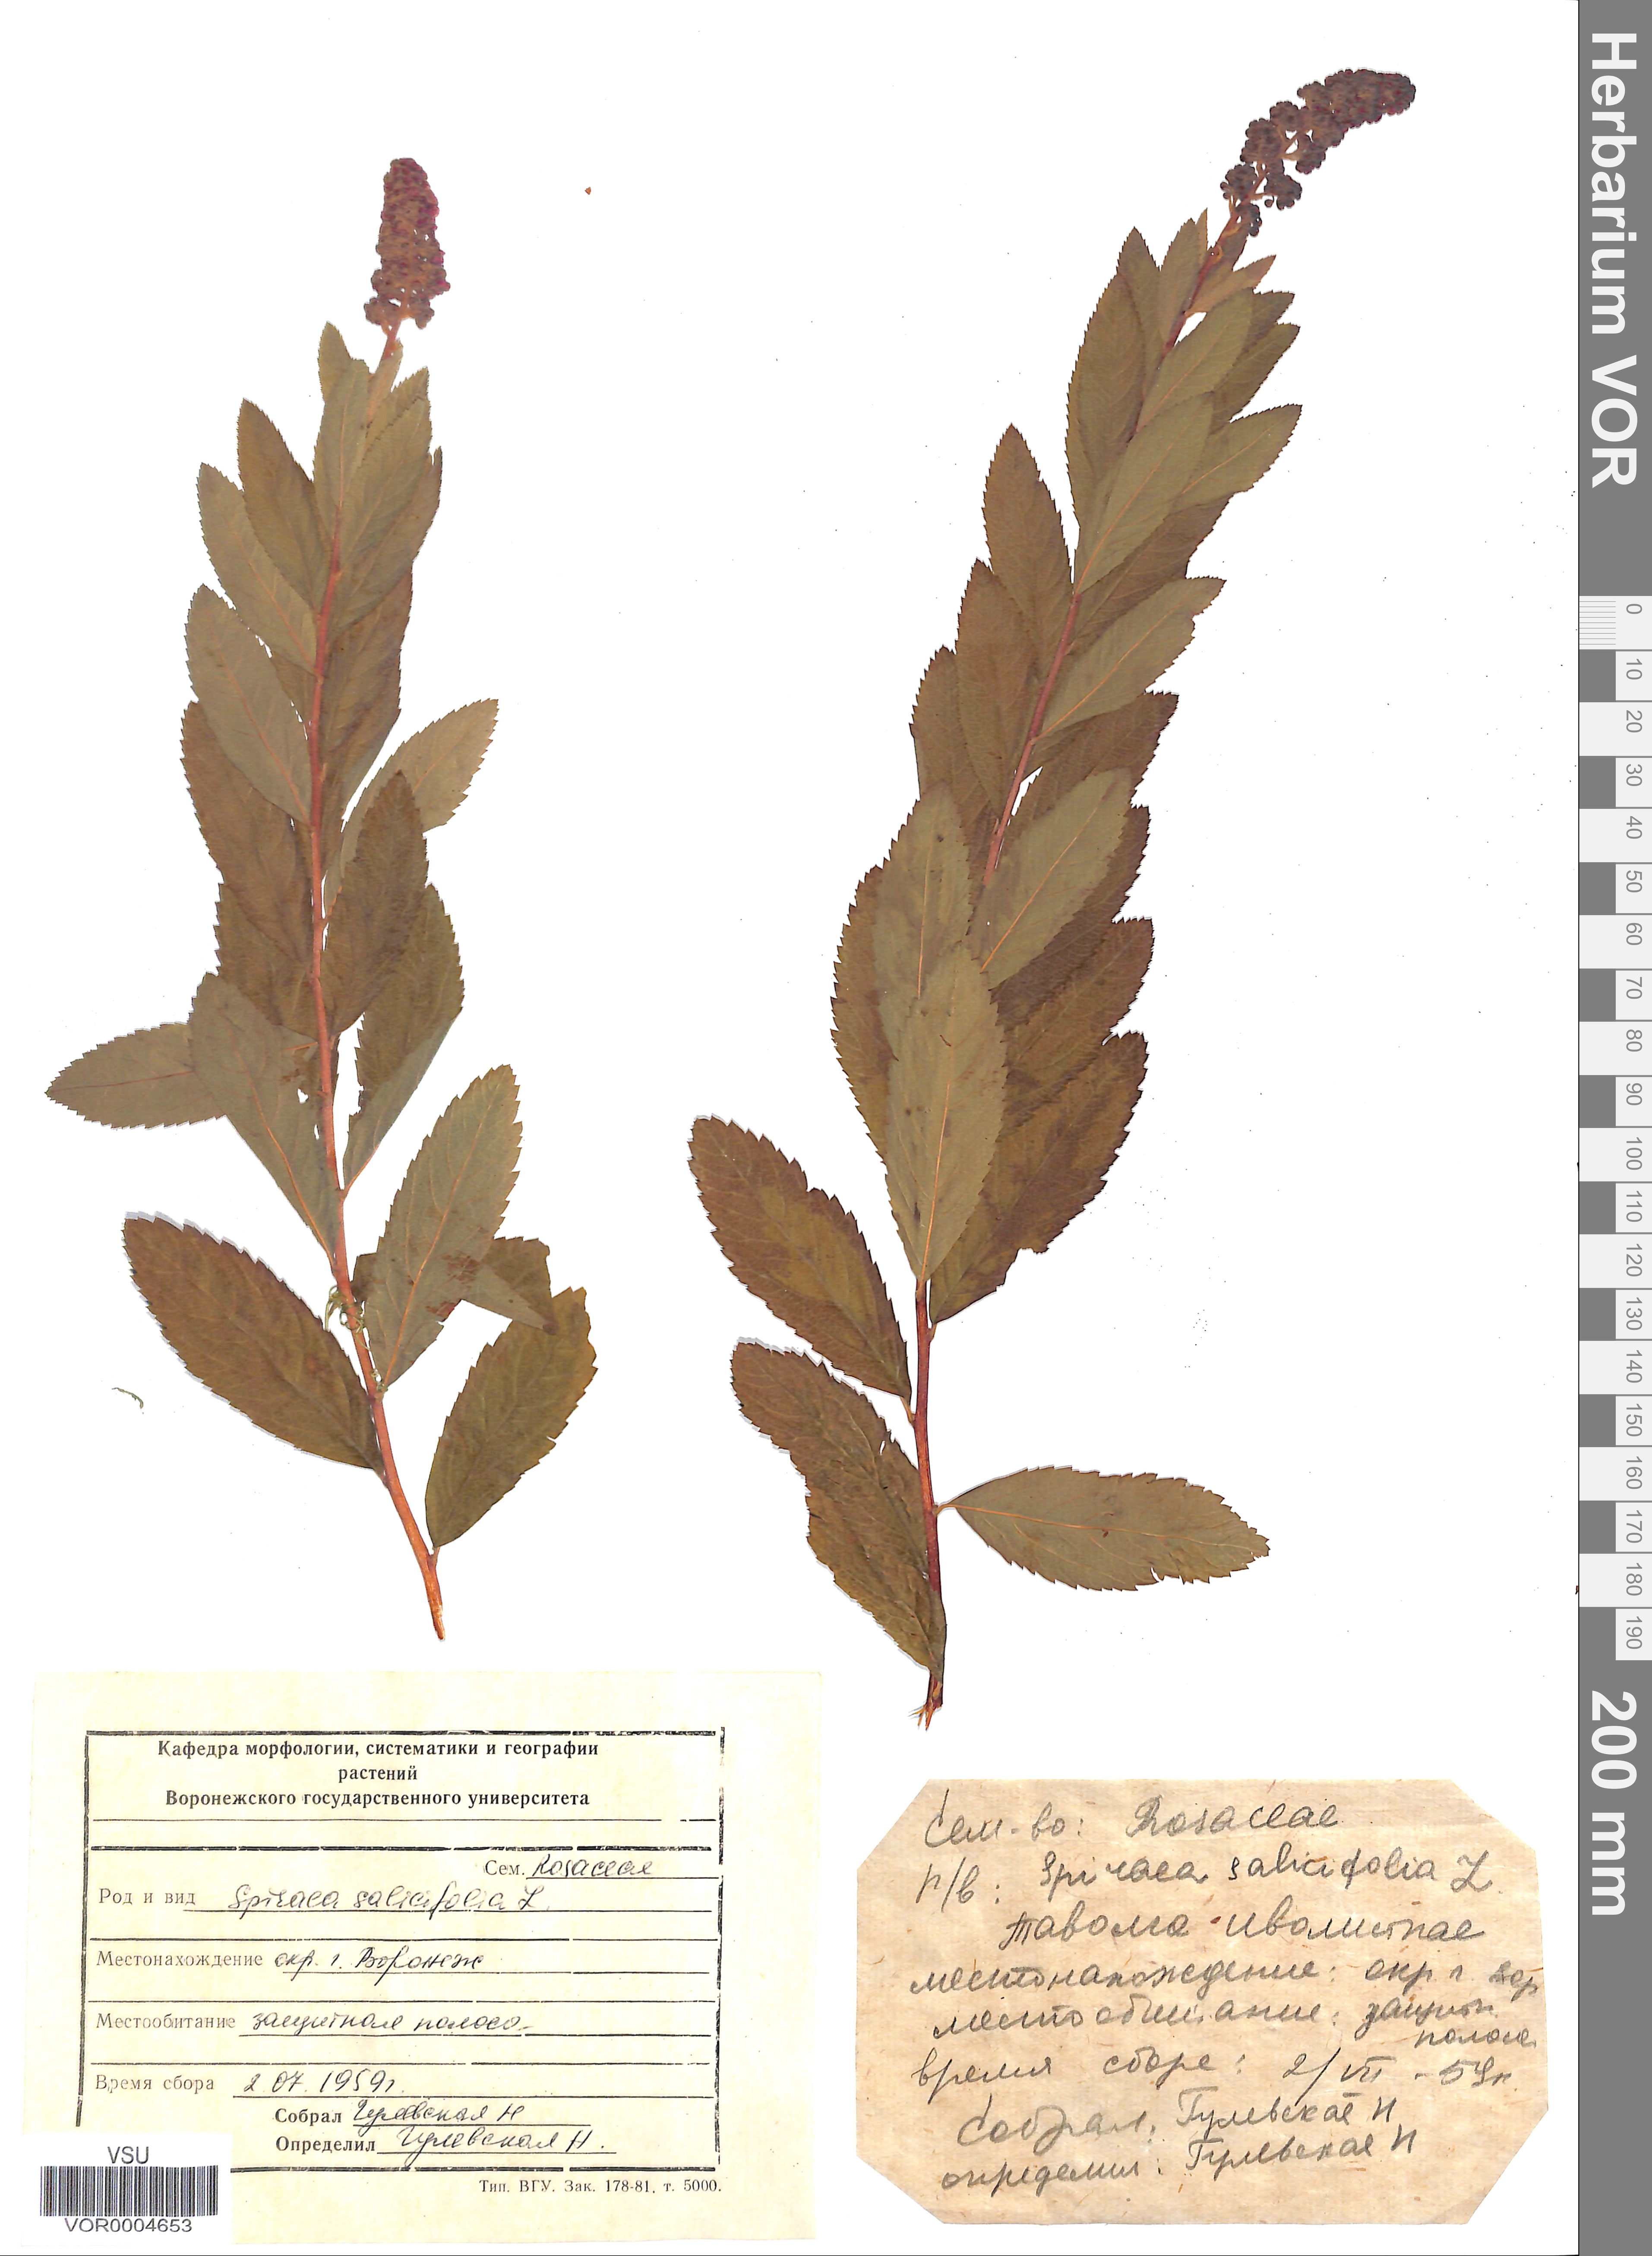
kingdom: Plantae
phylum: Tracheophyta
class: Magnoliopsida
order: Rosales
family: Rosaceae
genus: Spiraea
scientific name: Spiraea salicifolia
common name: Bridewort
